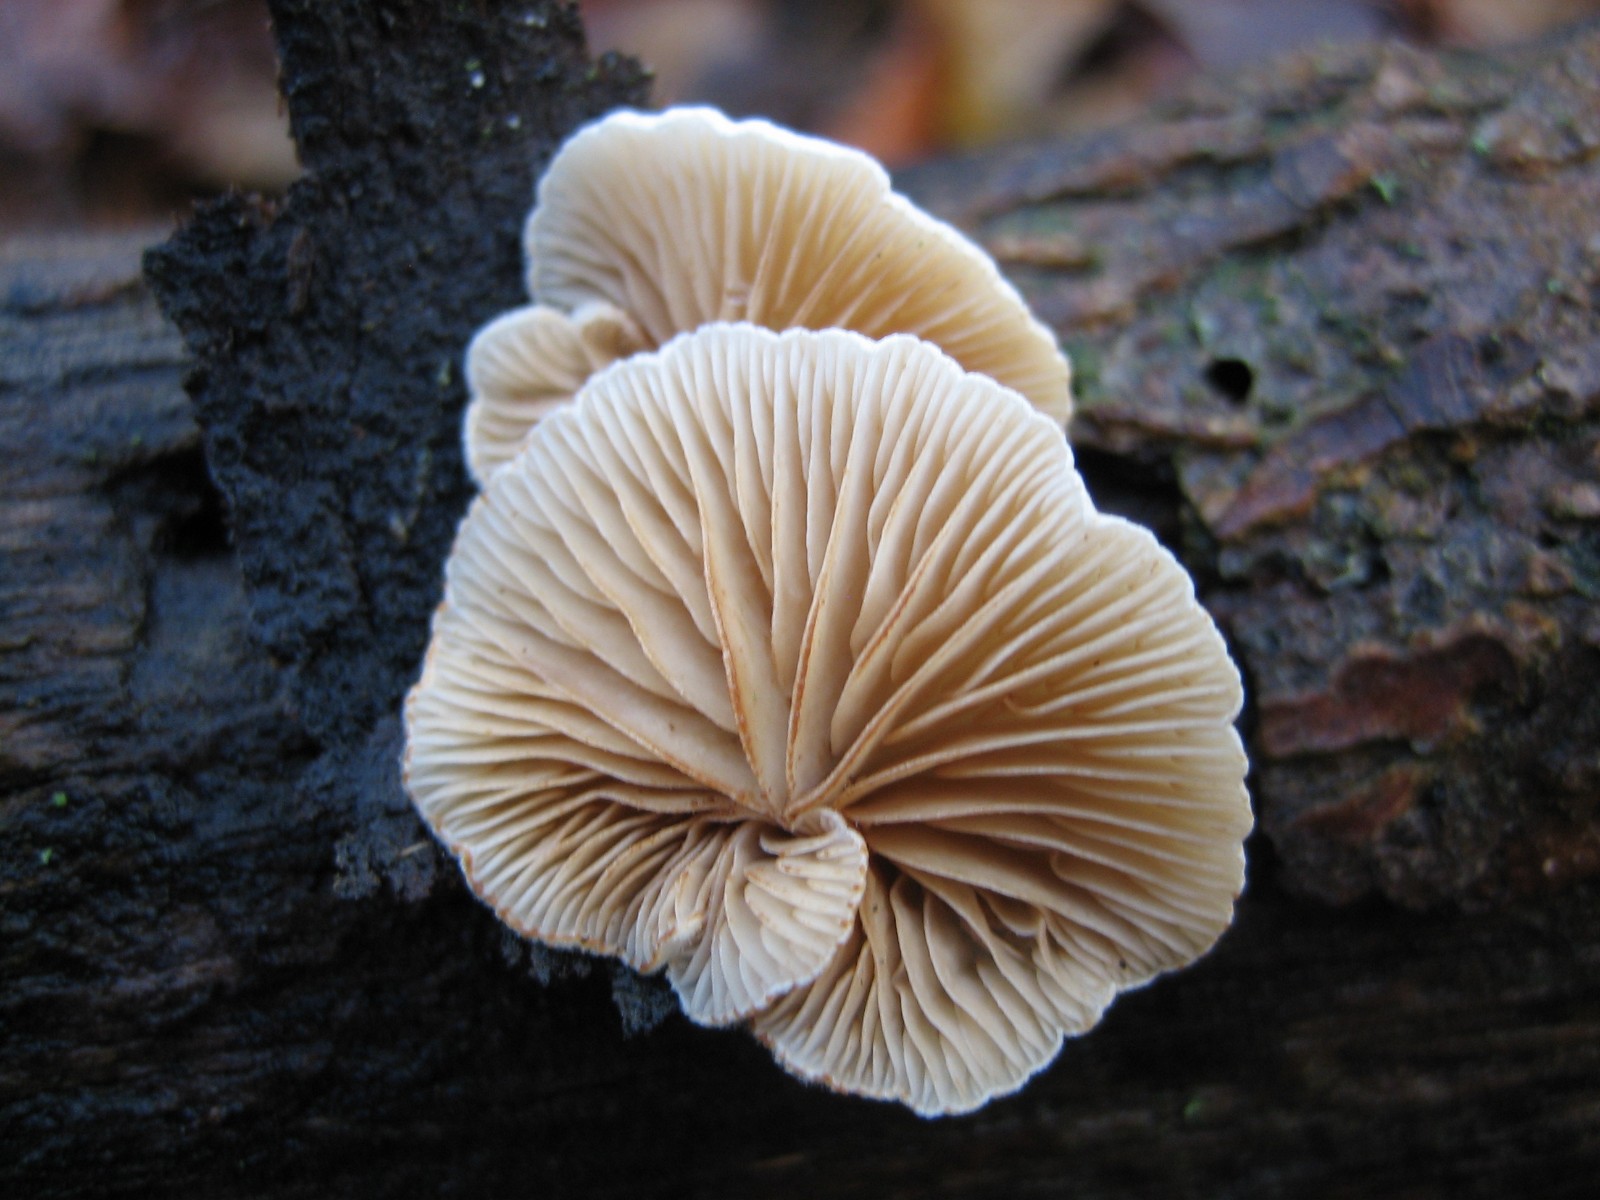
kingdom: Fungi
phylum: Basidiomycota
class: Agaricomycetes
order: Agaricales
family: Crepidotaceae
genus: Crepidotus
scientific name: Crepidotus
